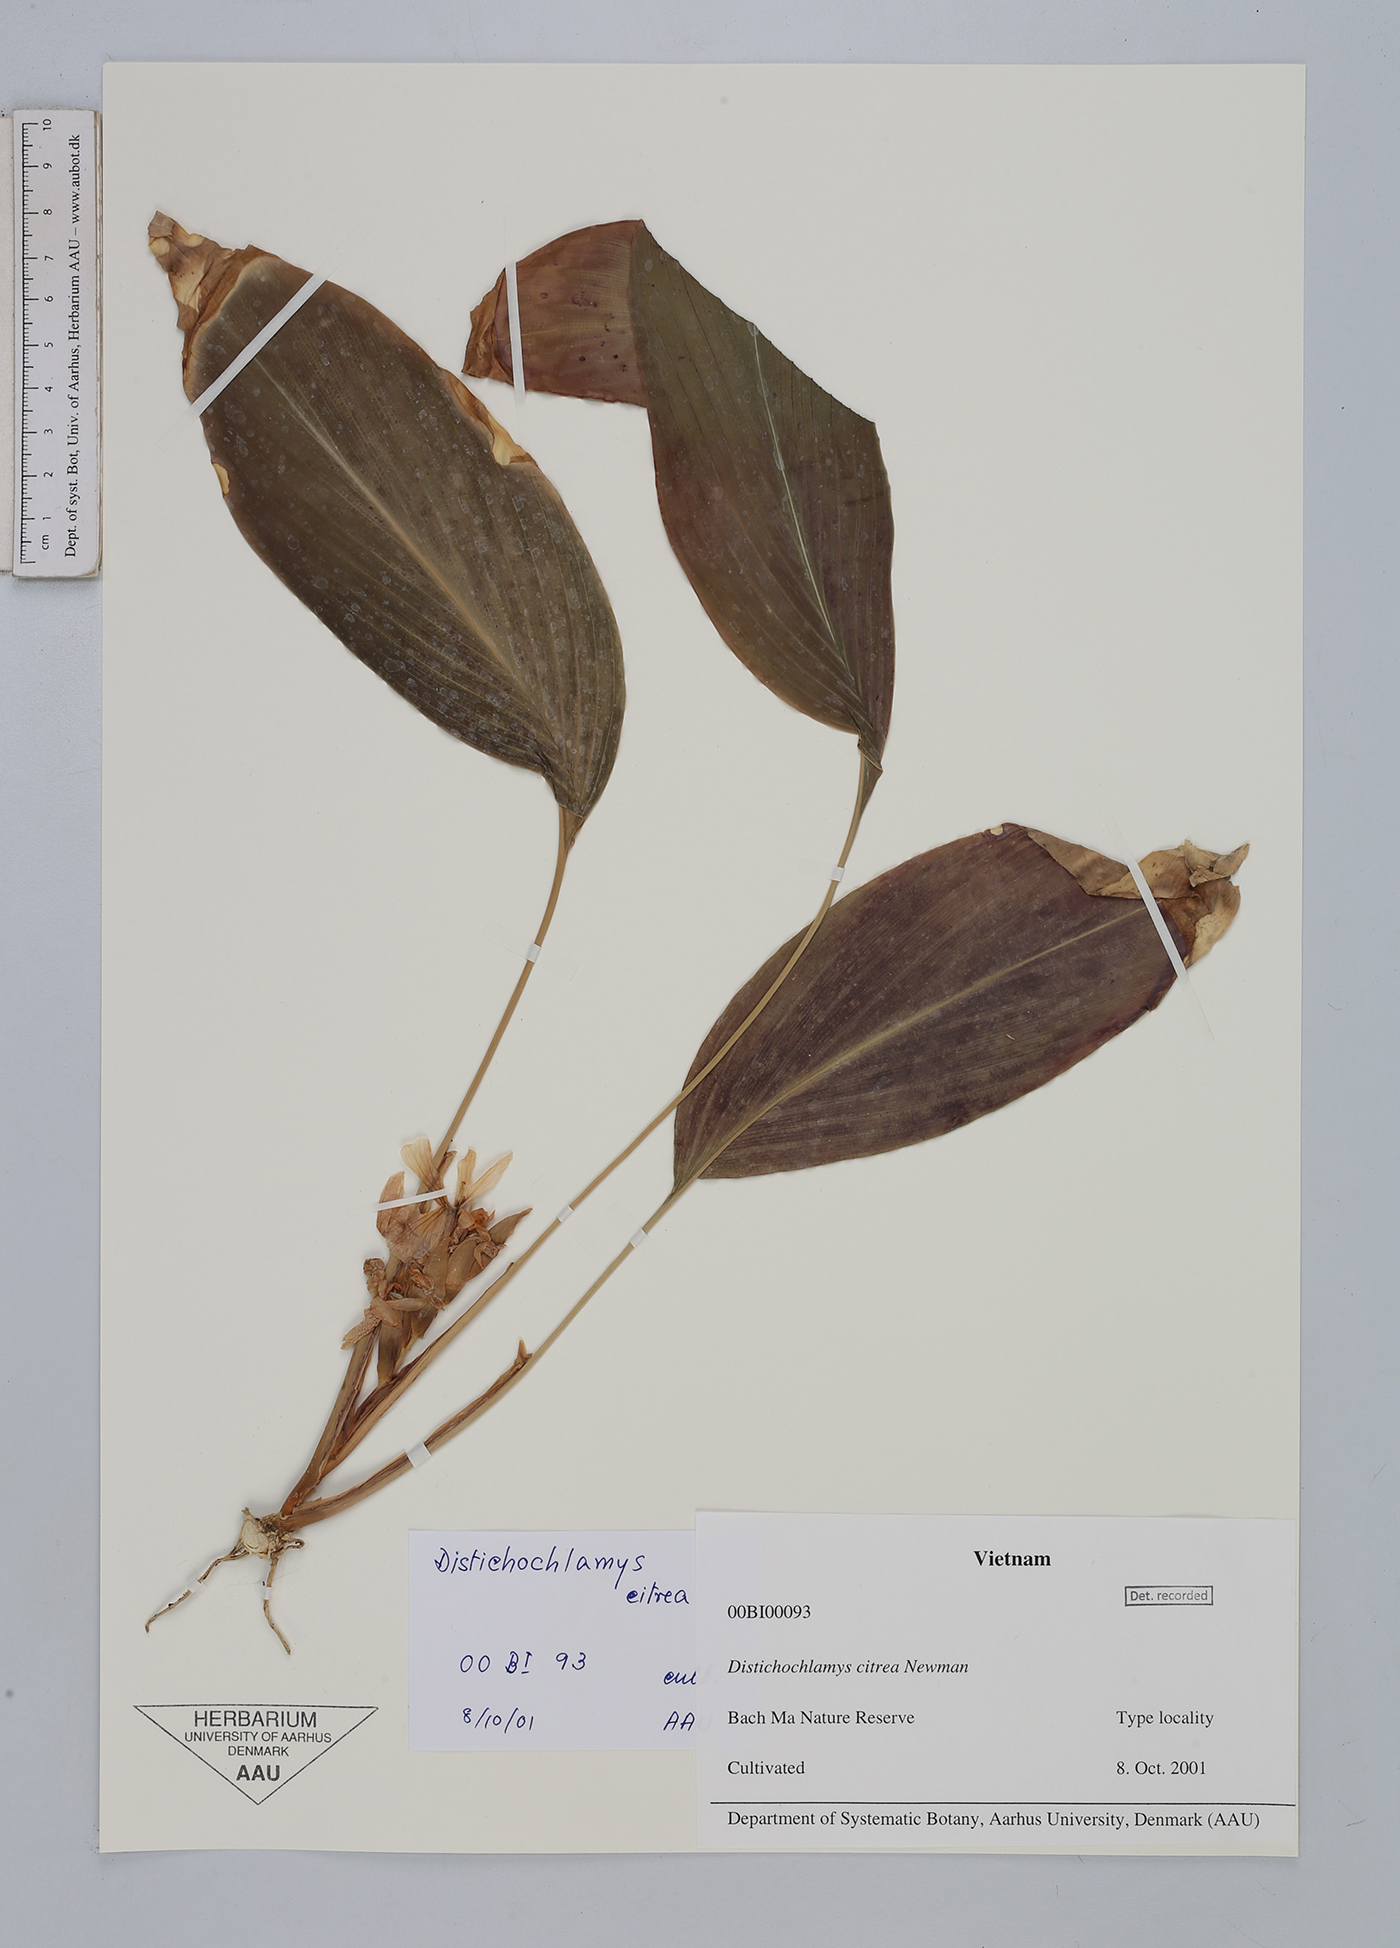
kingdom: Plantae
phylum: Tracheophyta
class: Liliopsida
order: Zingiberales
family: Zingiberaceae
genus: Distichochlamys
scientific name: Distichochlamys citrea
